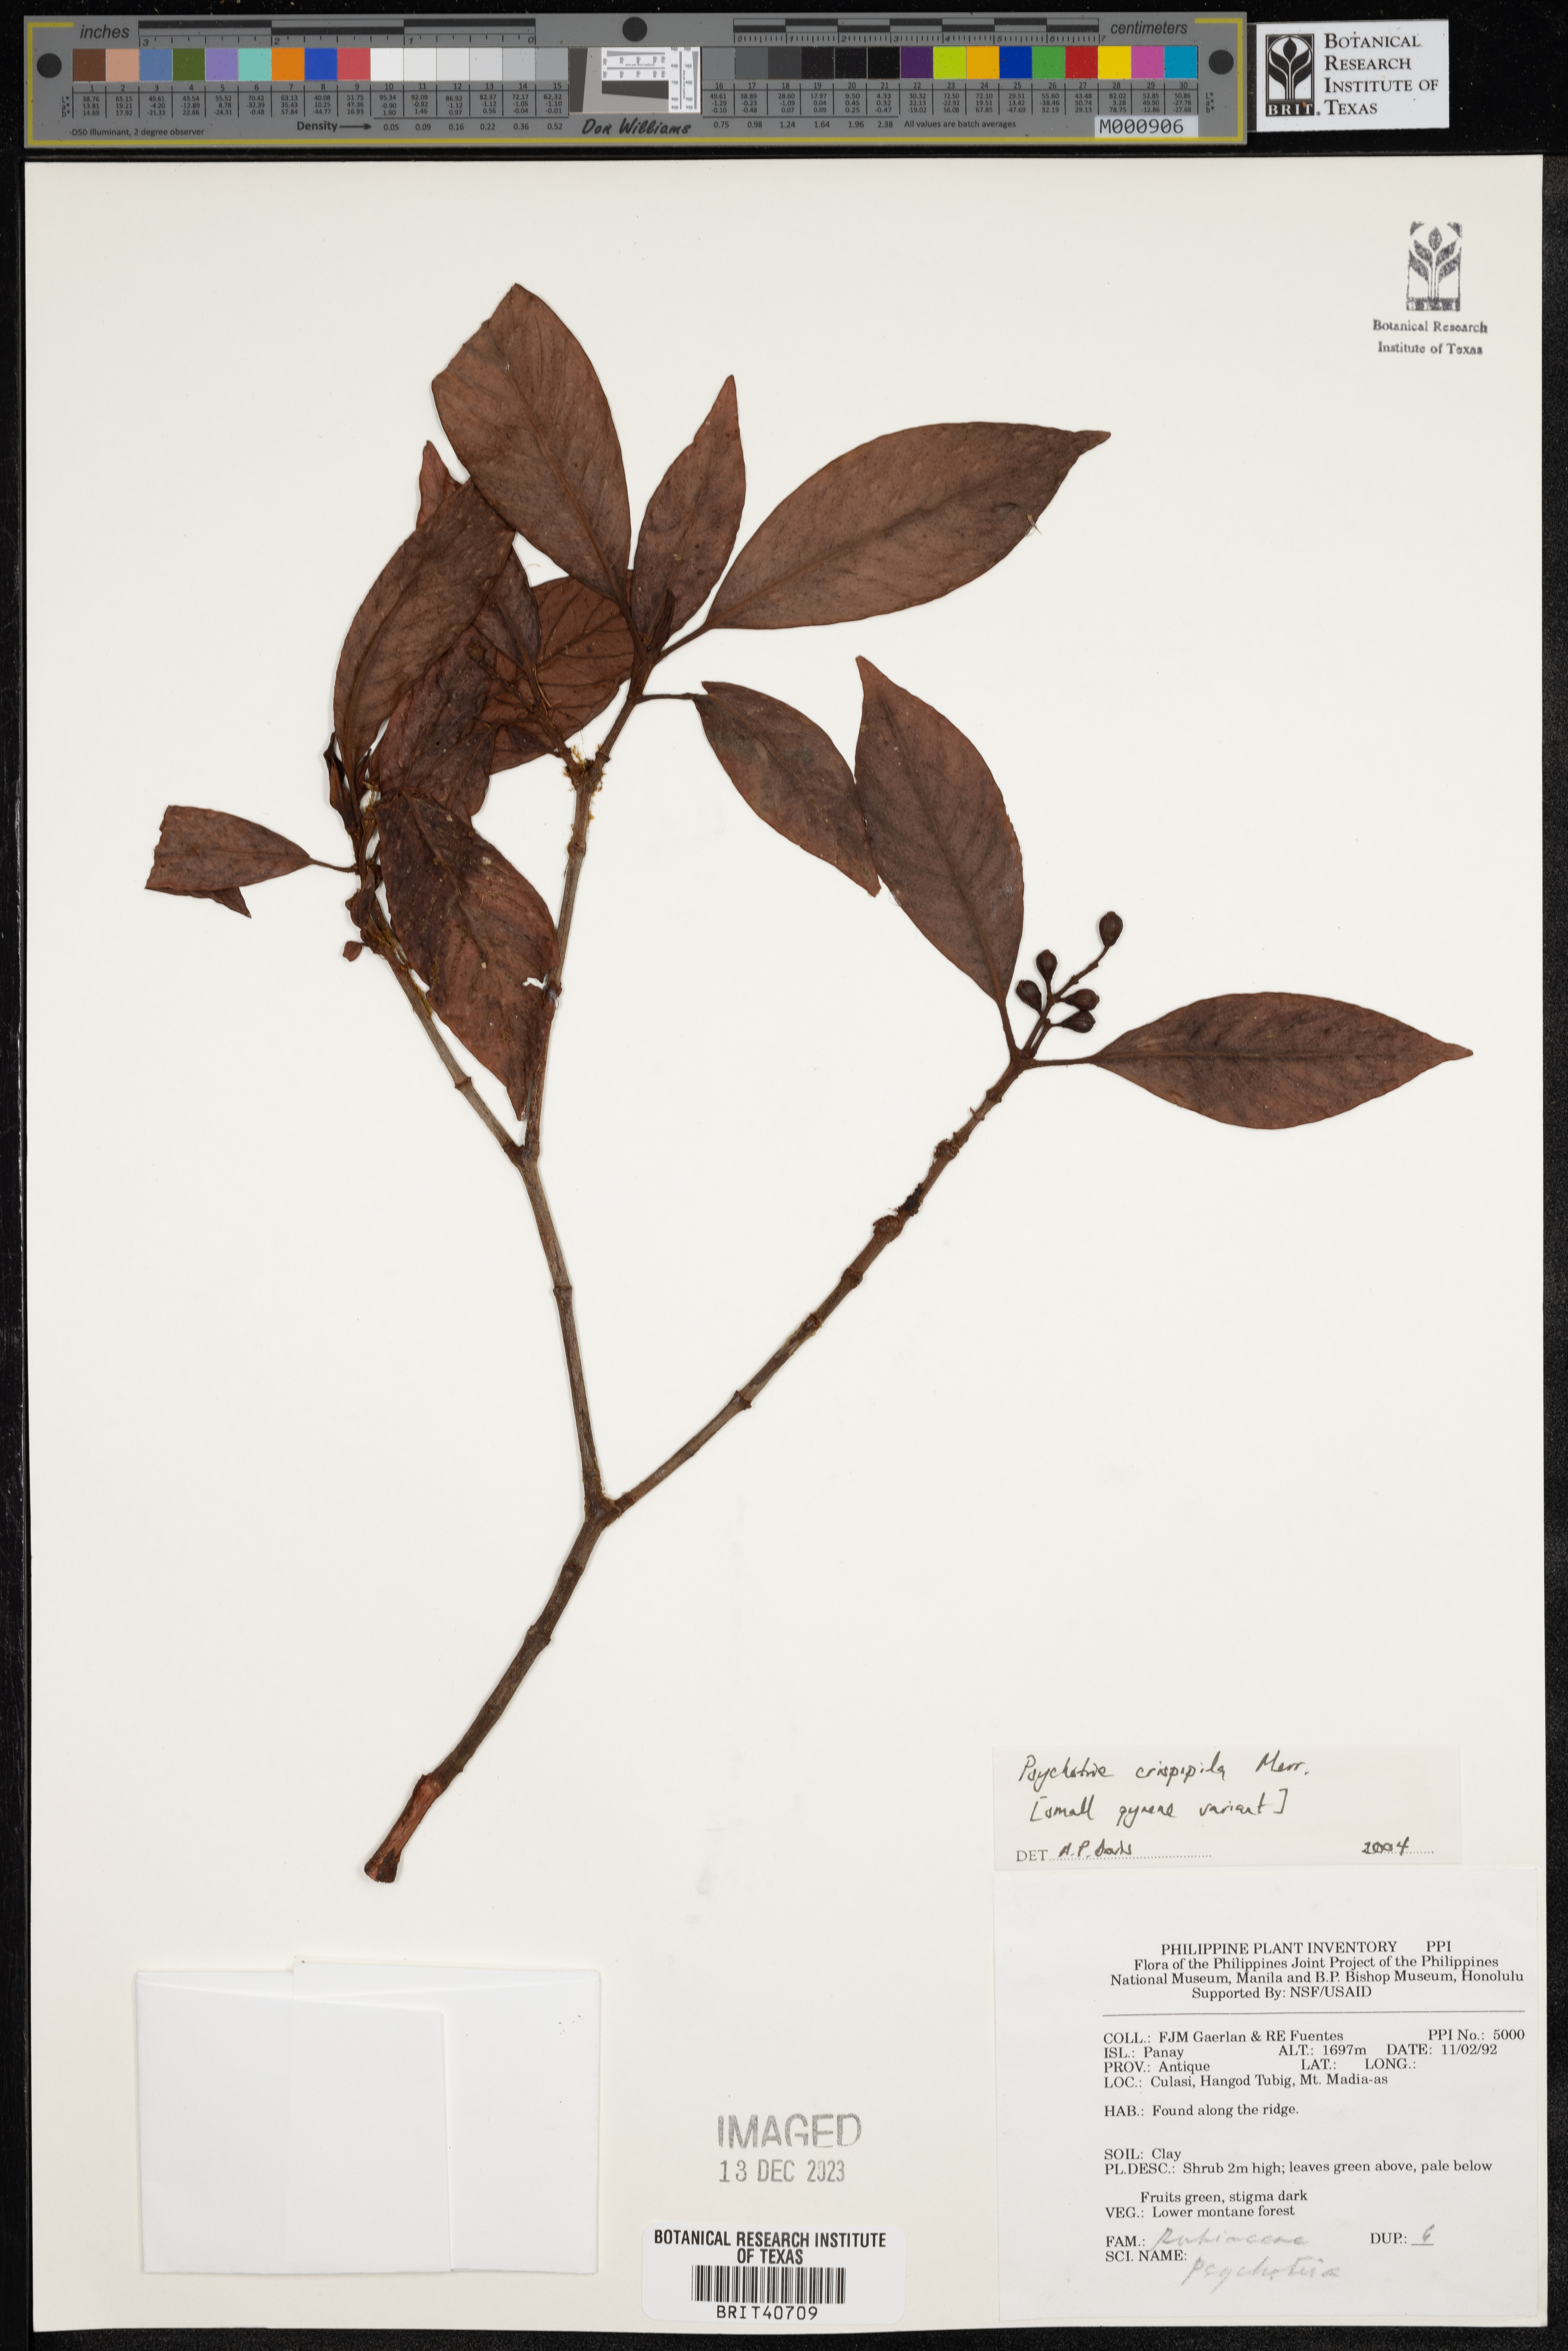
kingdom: Plantae
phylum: Tracheophyta
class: Magnoliopsida
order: Gentianales
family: Rubiaceae
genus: Psychotria
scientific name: Psychotria crispipila
